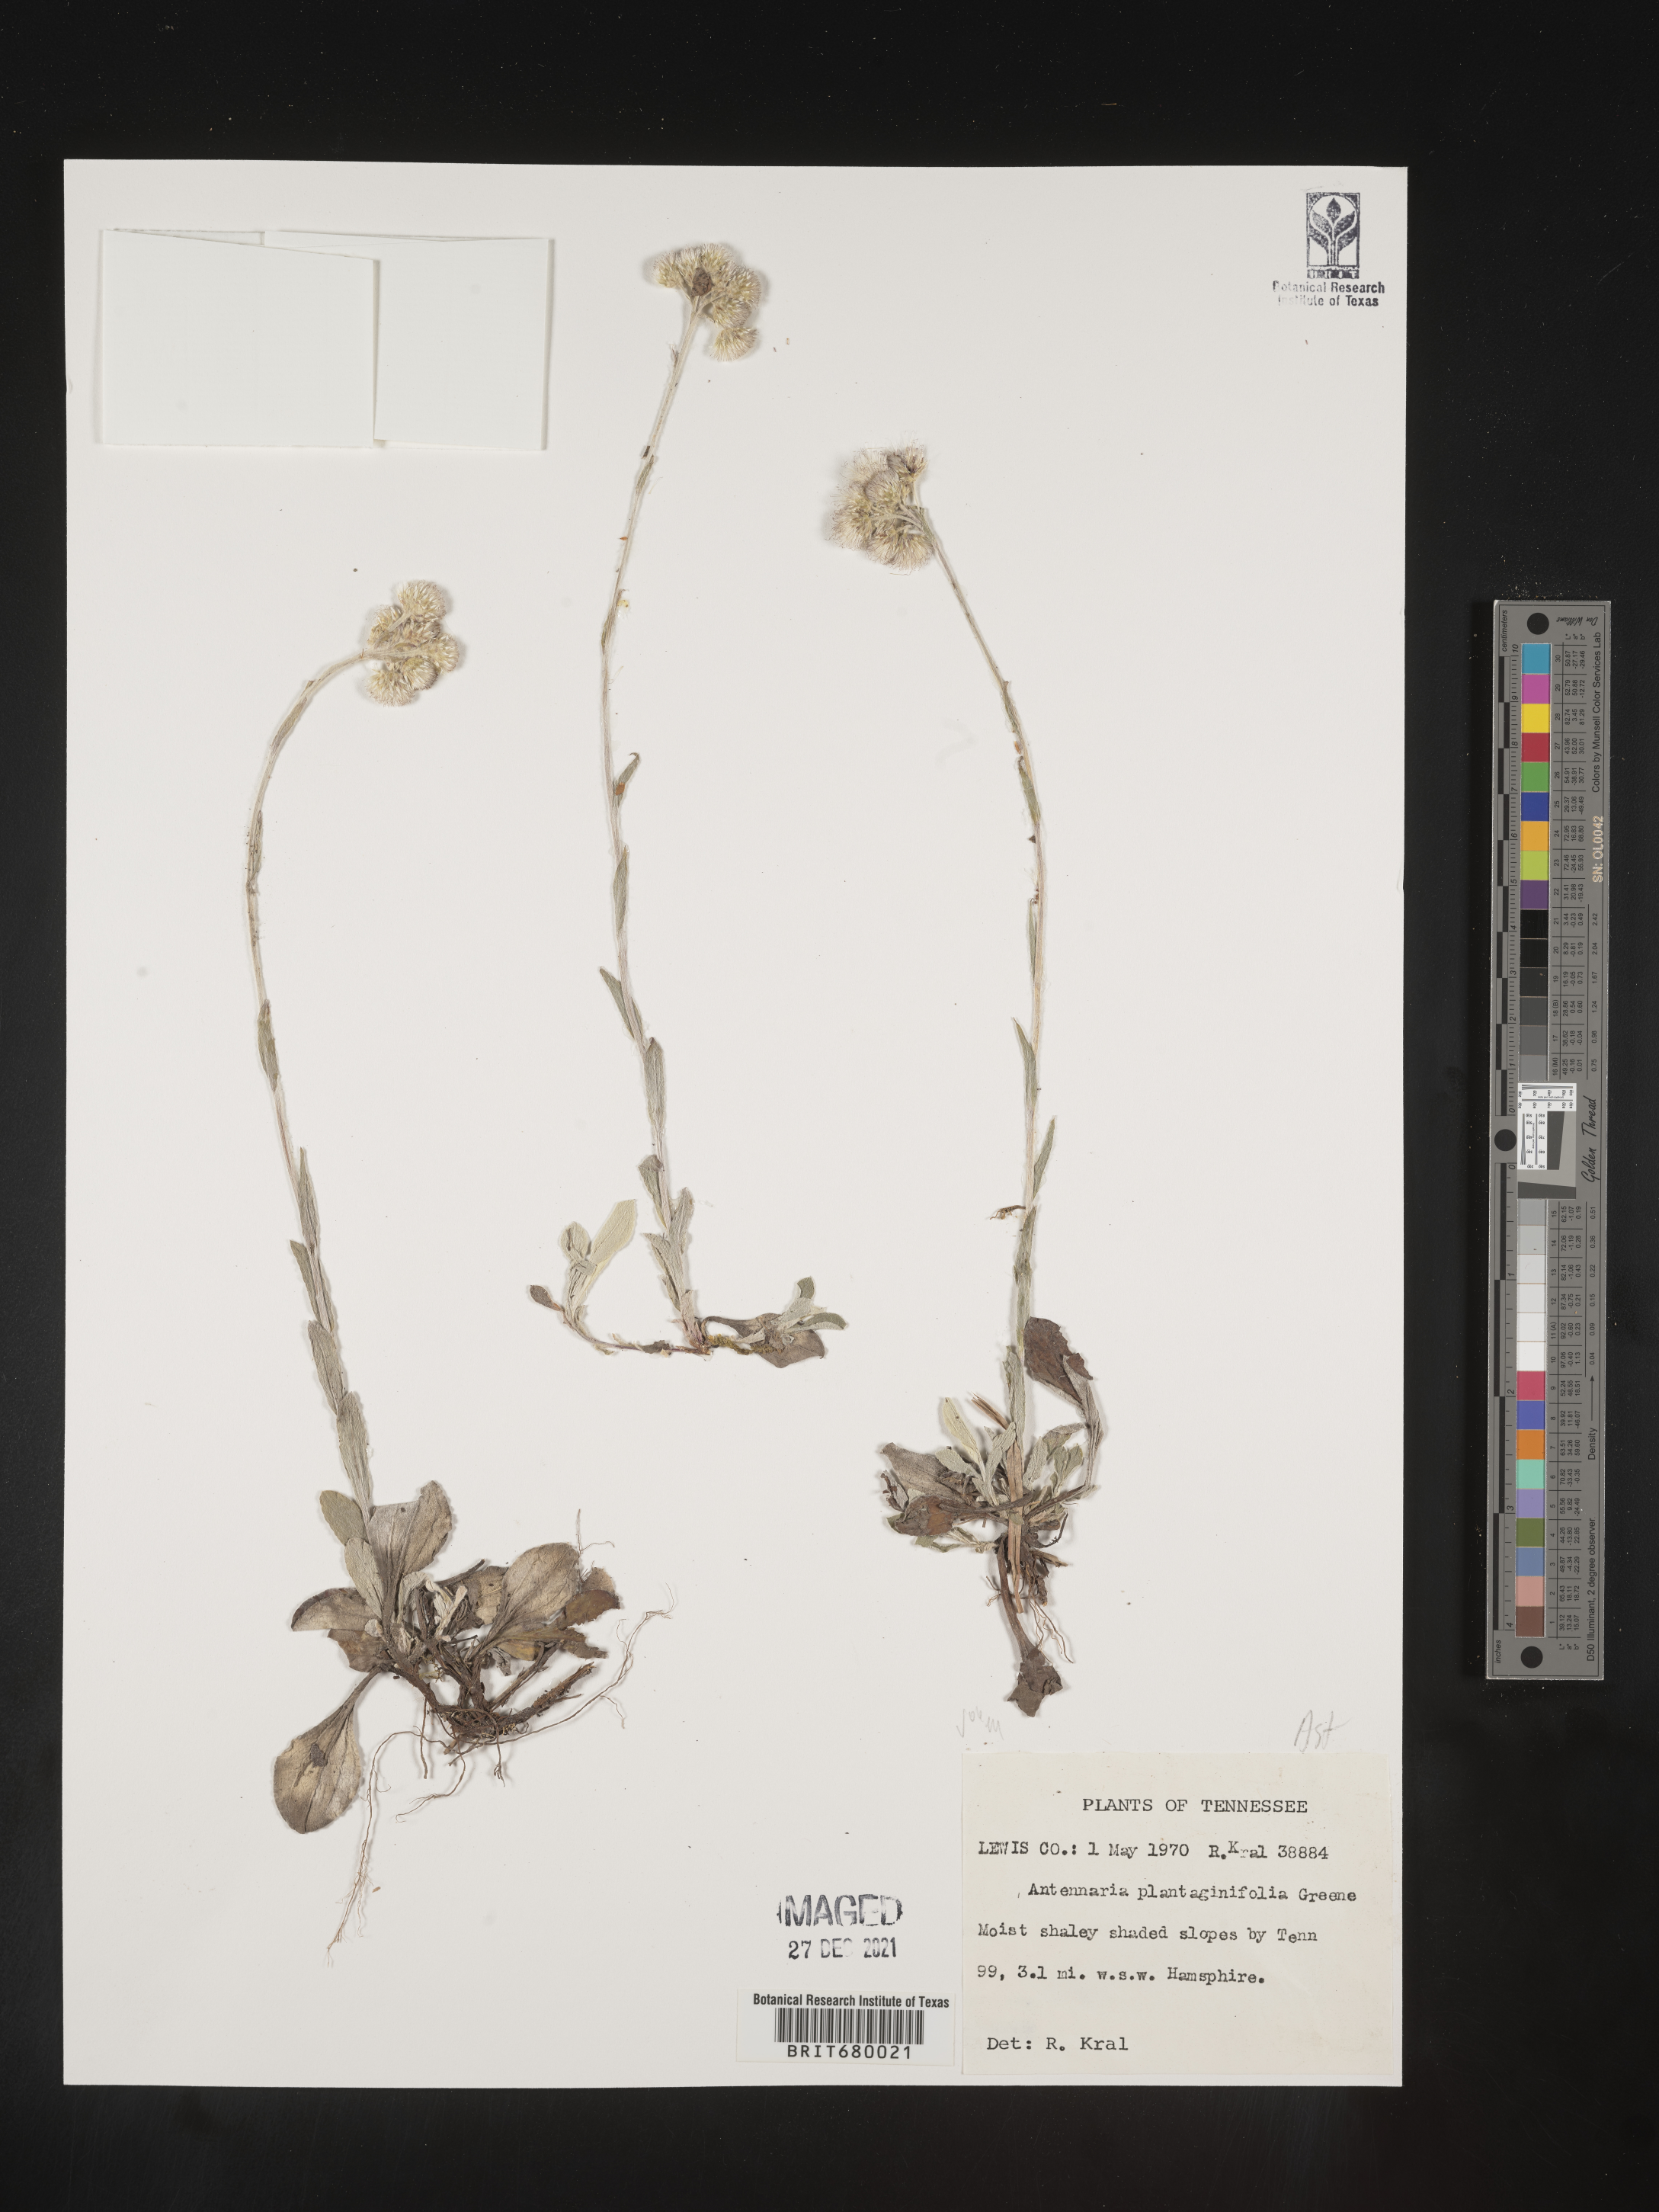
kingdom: Plantae
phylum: Tracheophyta
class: Magnoliopsida
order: Asterales
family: Asteraceae
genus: Antennaria
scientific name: Antennaria plantaginifolia
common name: Plantain-leaved pussytoes
